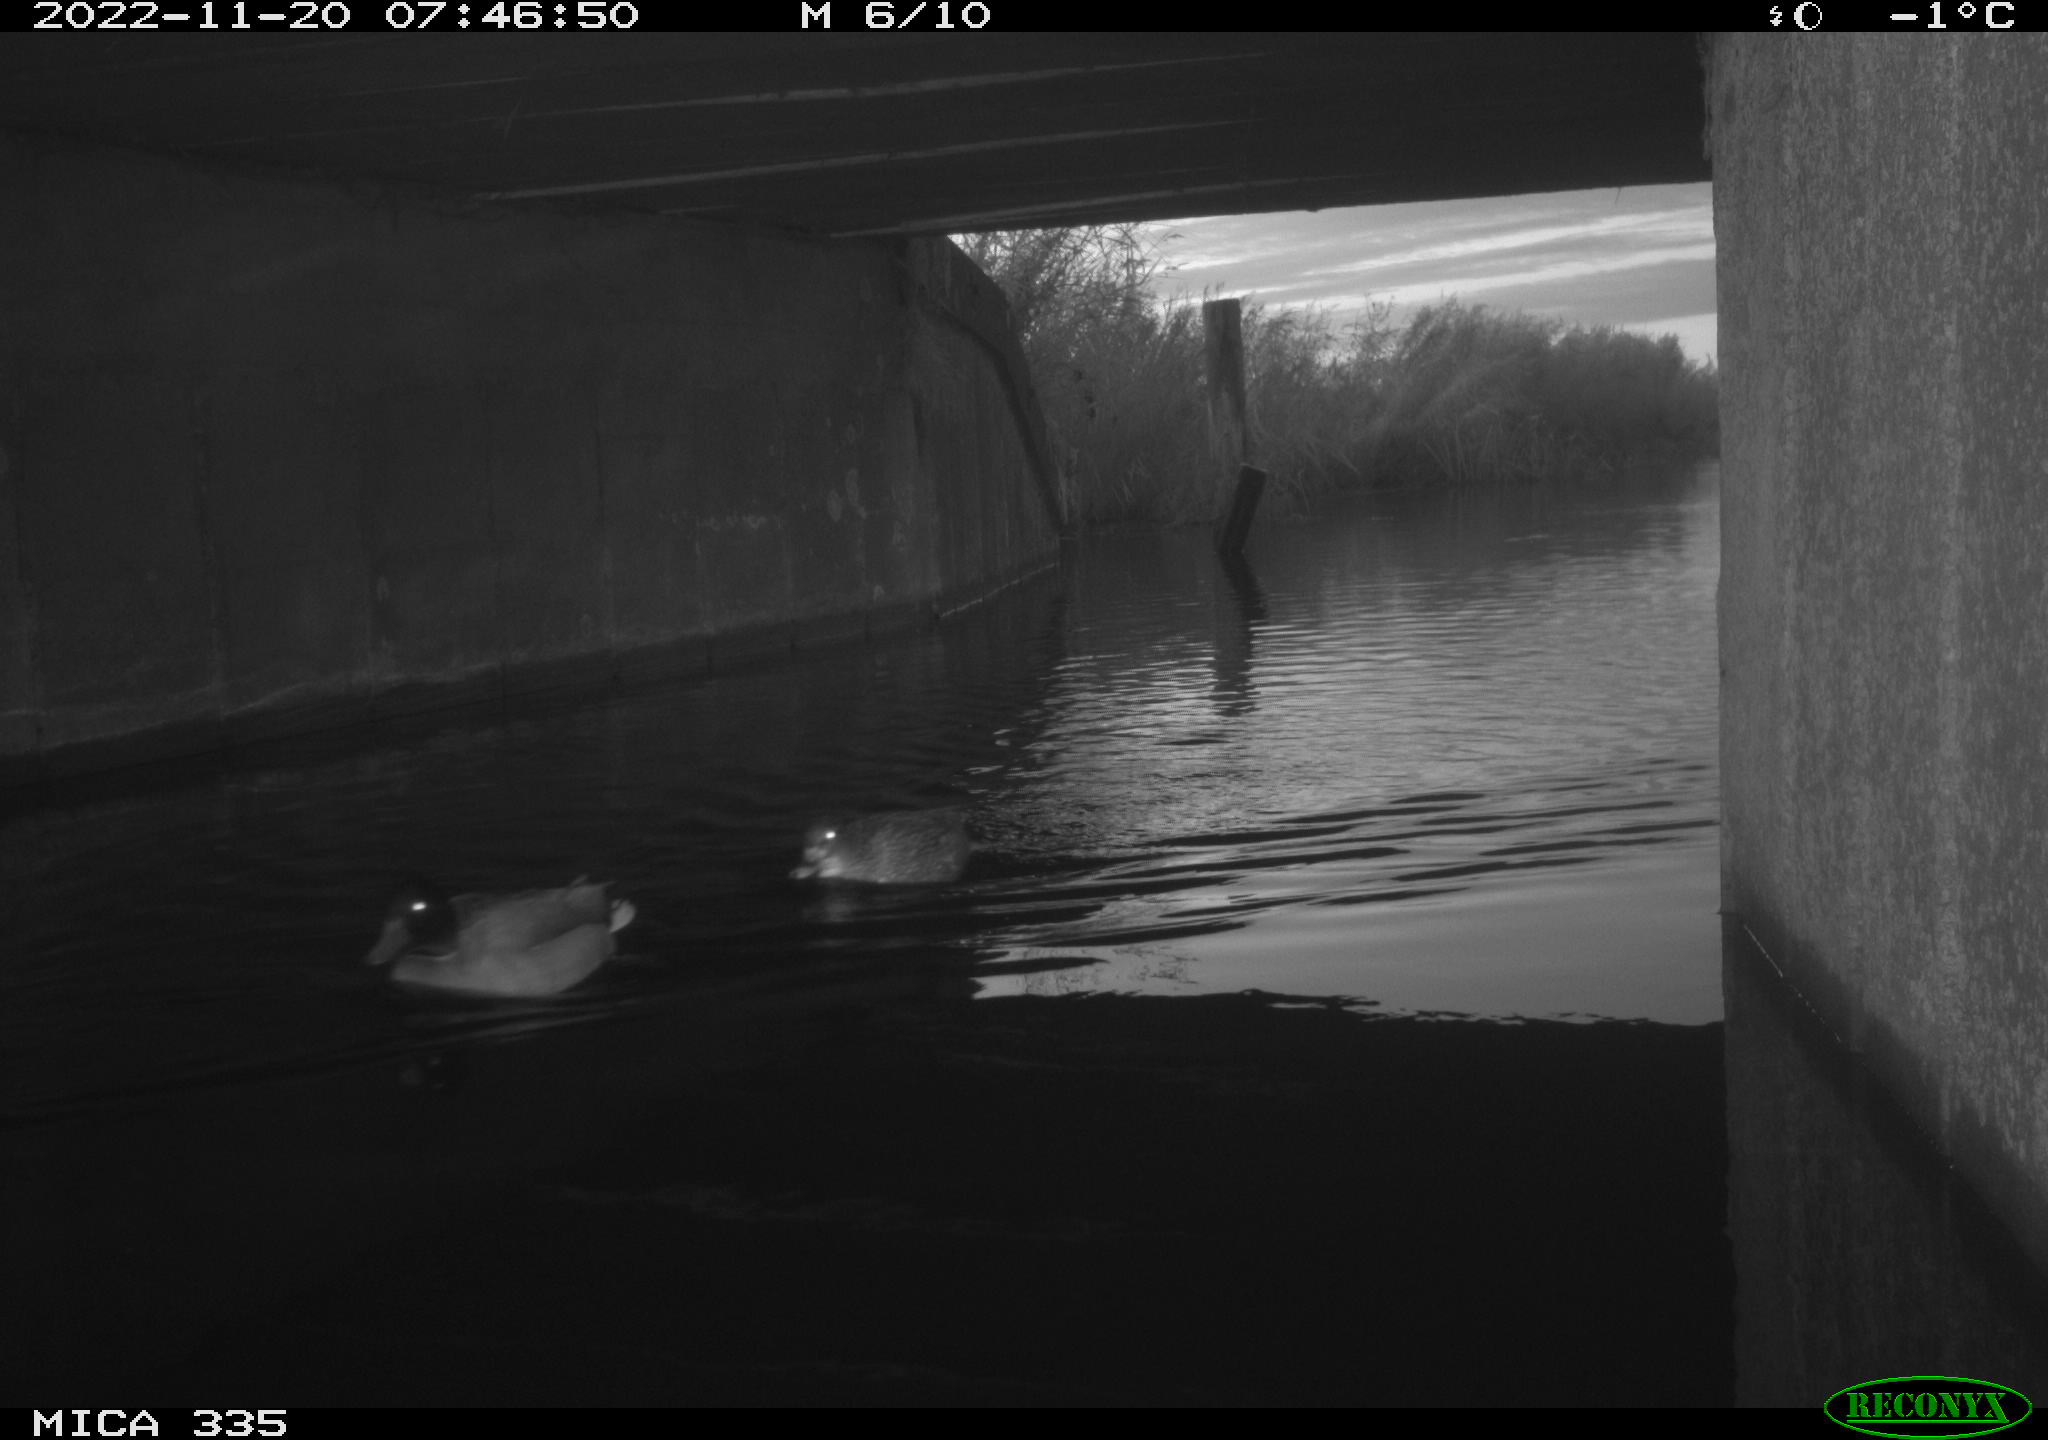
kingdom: Animalia
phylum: Chordata
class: Aves
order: Anseriformes
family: Anatidae
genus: Anas
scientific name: Anas platyrhynchos
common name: Mallard
